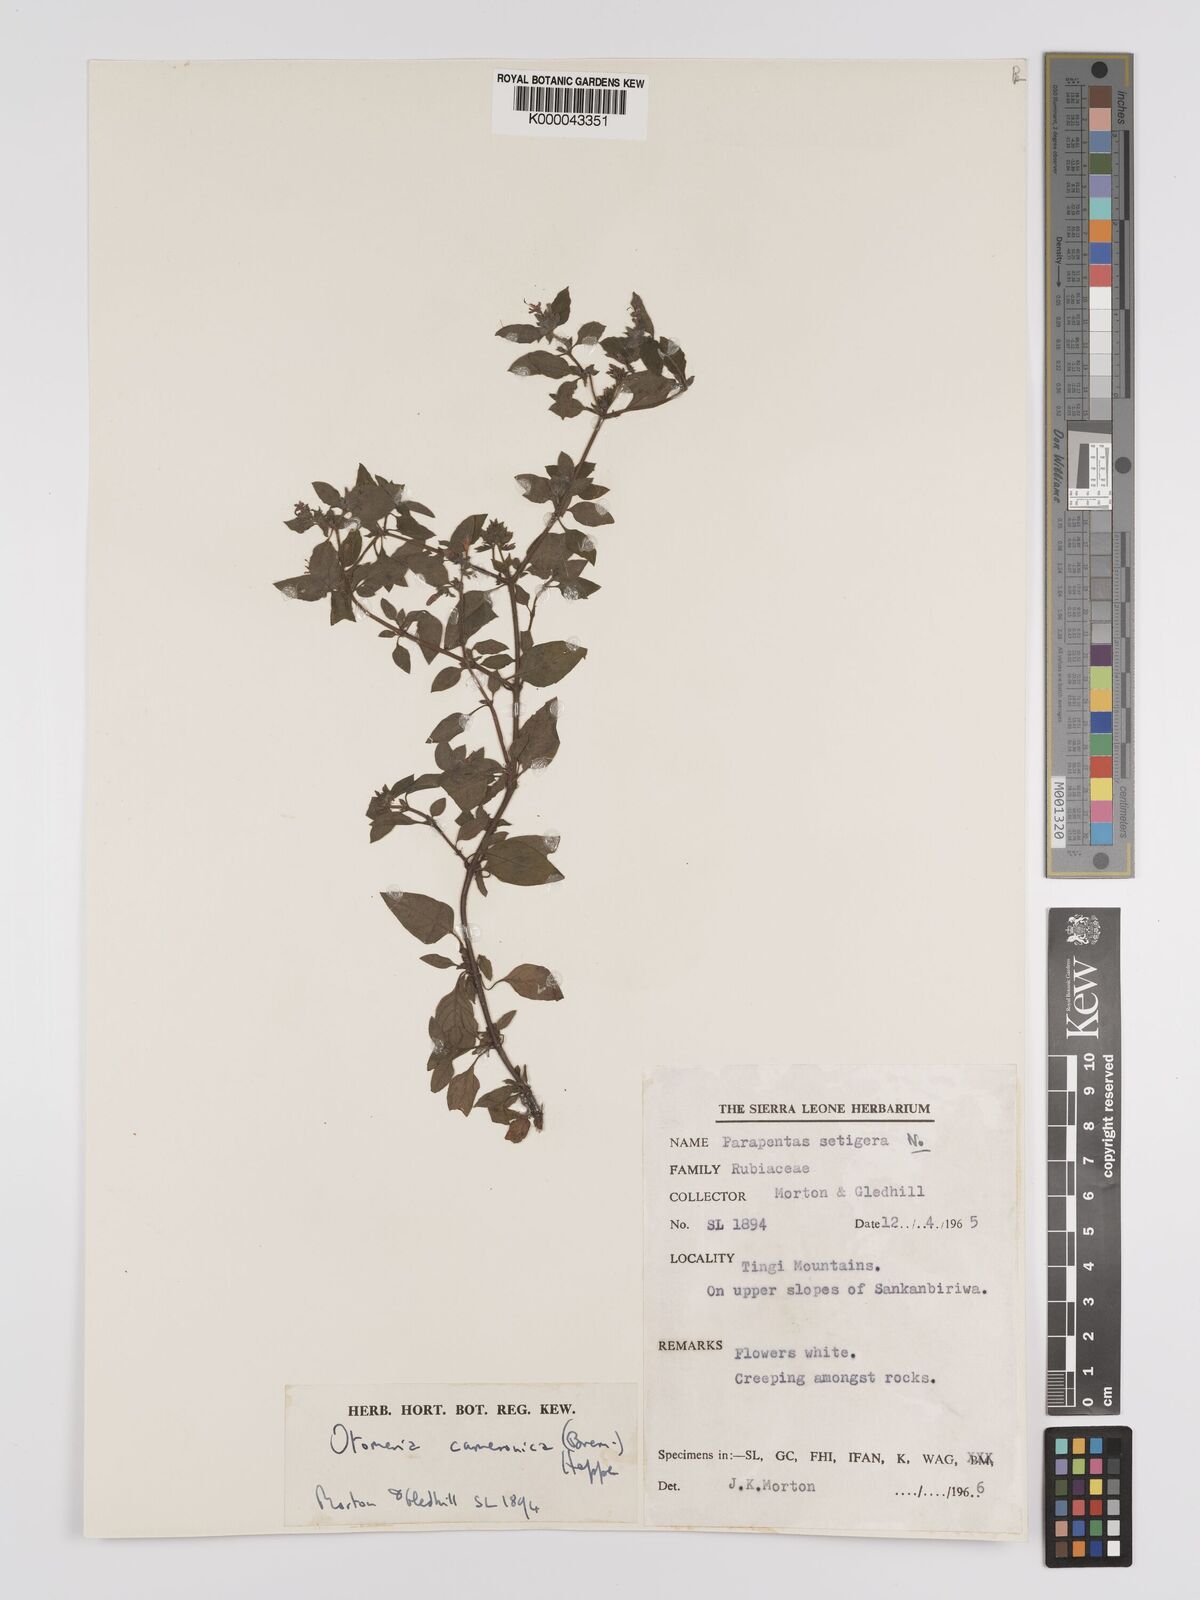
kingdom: Plantae
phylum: Tracheophyta
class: Magnoliopsida
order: Gentianales
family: Rubiaceae
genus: Otomeria
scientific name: Otomeria cameronica
